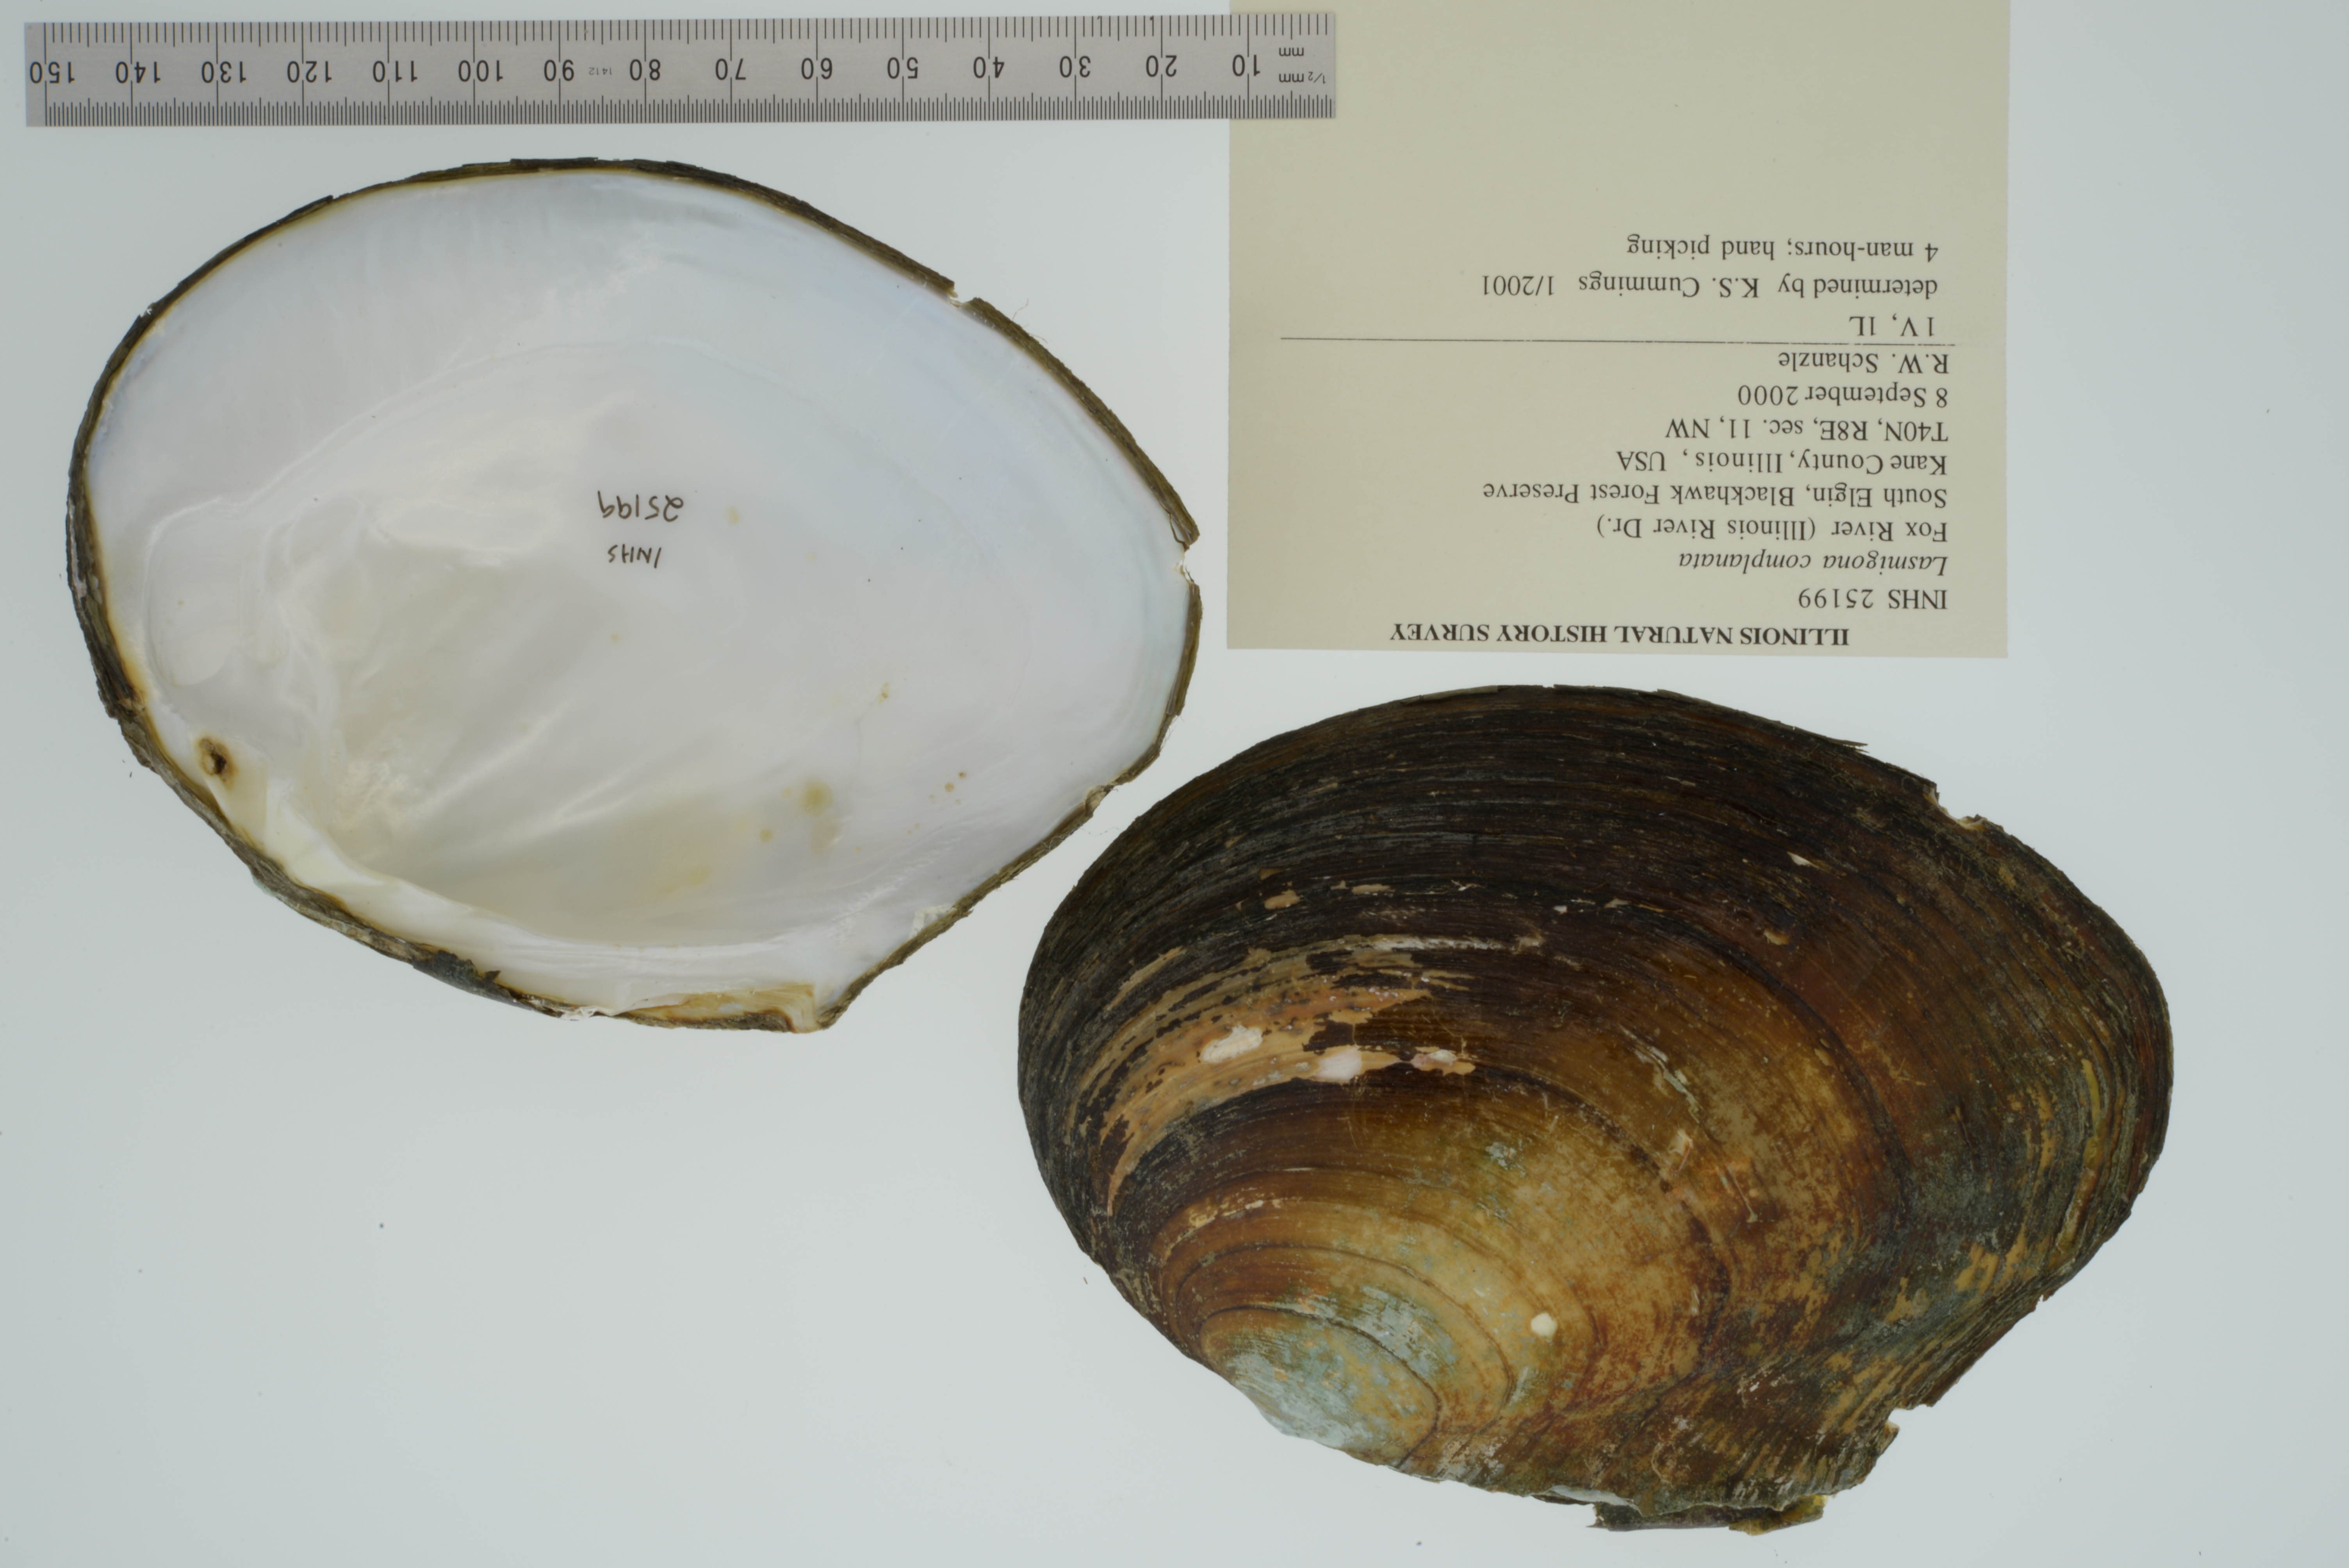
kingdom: Animalia
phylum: Mollusca
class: Bivalvia
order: Unionida
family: Unionidae
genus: Lasmigona
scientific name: Lasmigona complanata
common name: White heelsplitter
